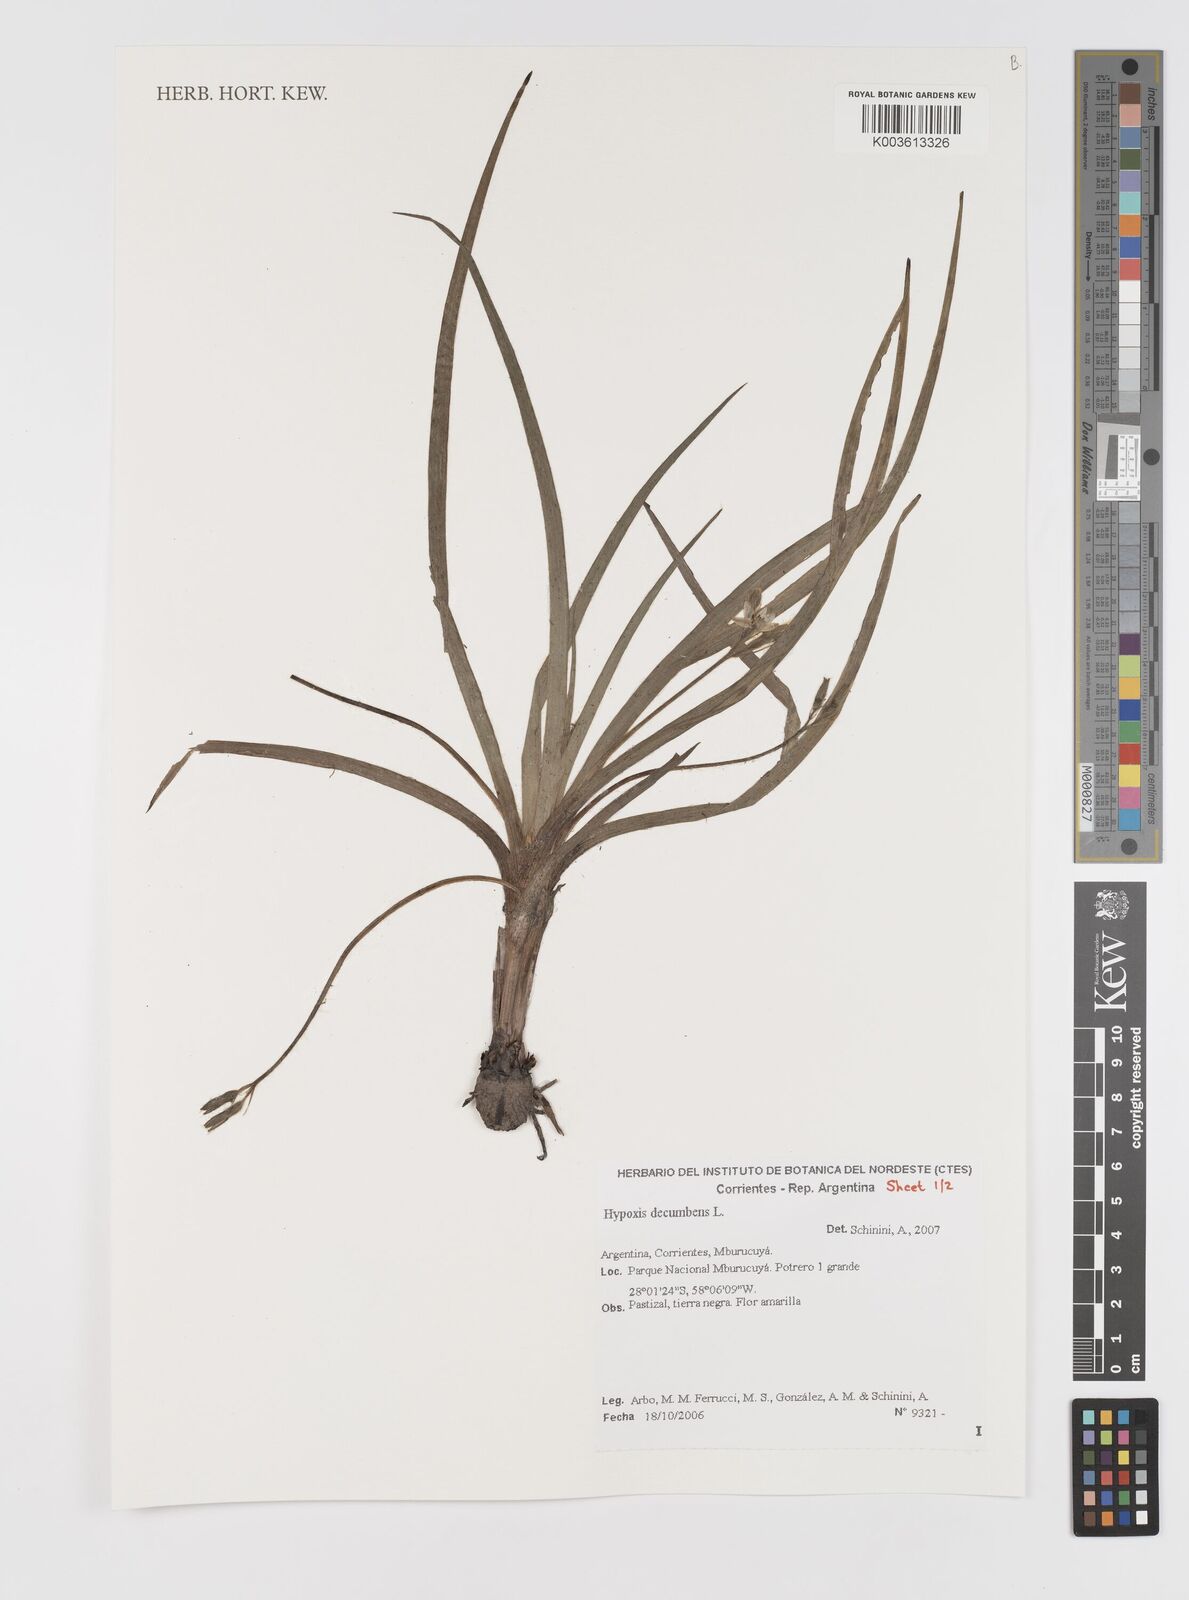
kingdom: Plantae
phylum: Tracheophyta
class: Liliopsida
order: Asparagales
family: Hypoxidaceae
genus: Hypoxis
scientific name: Hypoxis decumbens
